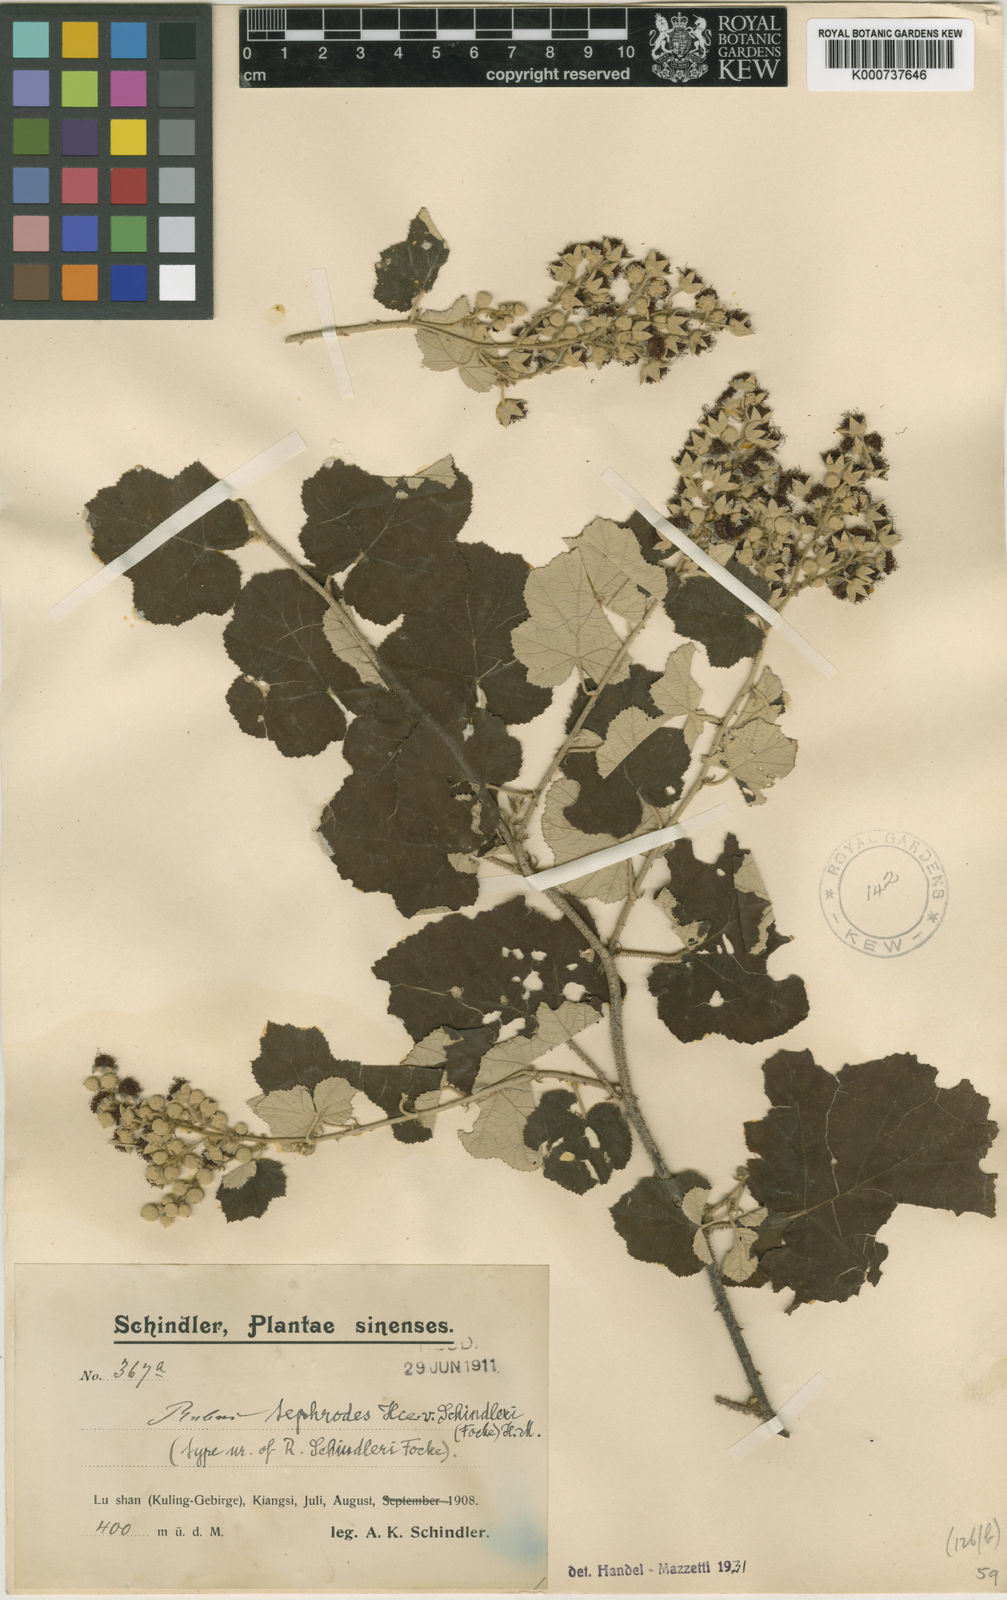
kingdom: Plantae
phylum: Tracheophyta
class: Magnoliopsida
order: Rosales
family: Rosaceae
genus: Rubus
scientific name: Rubus tephrodes
